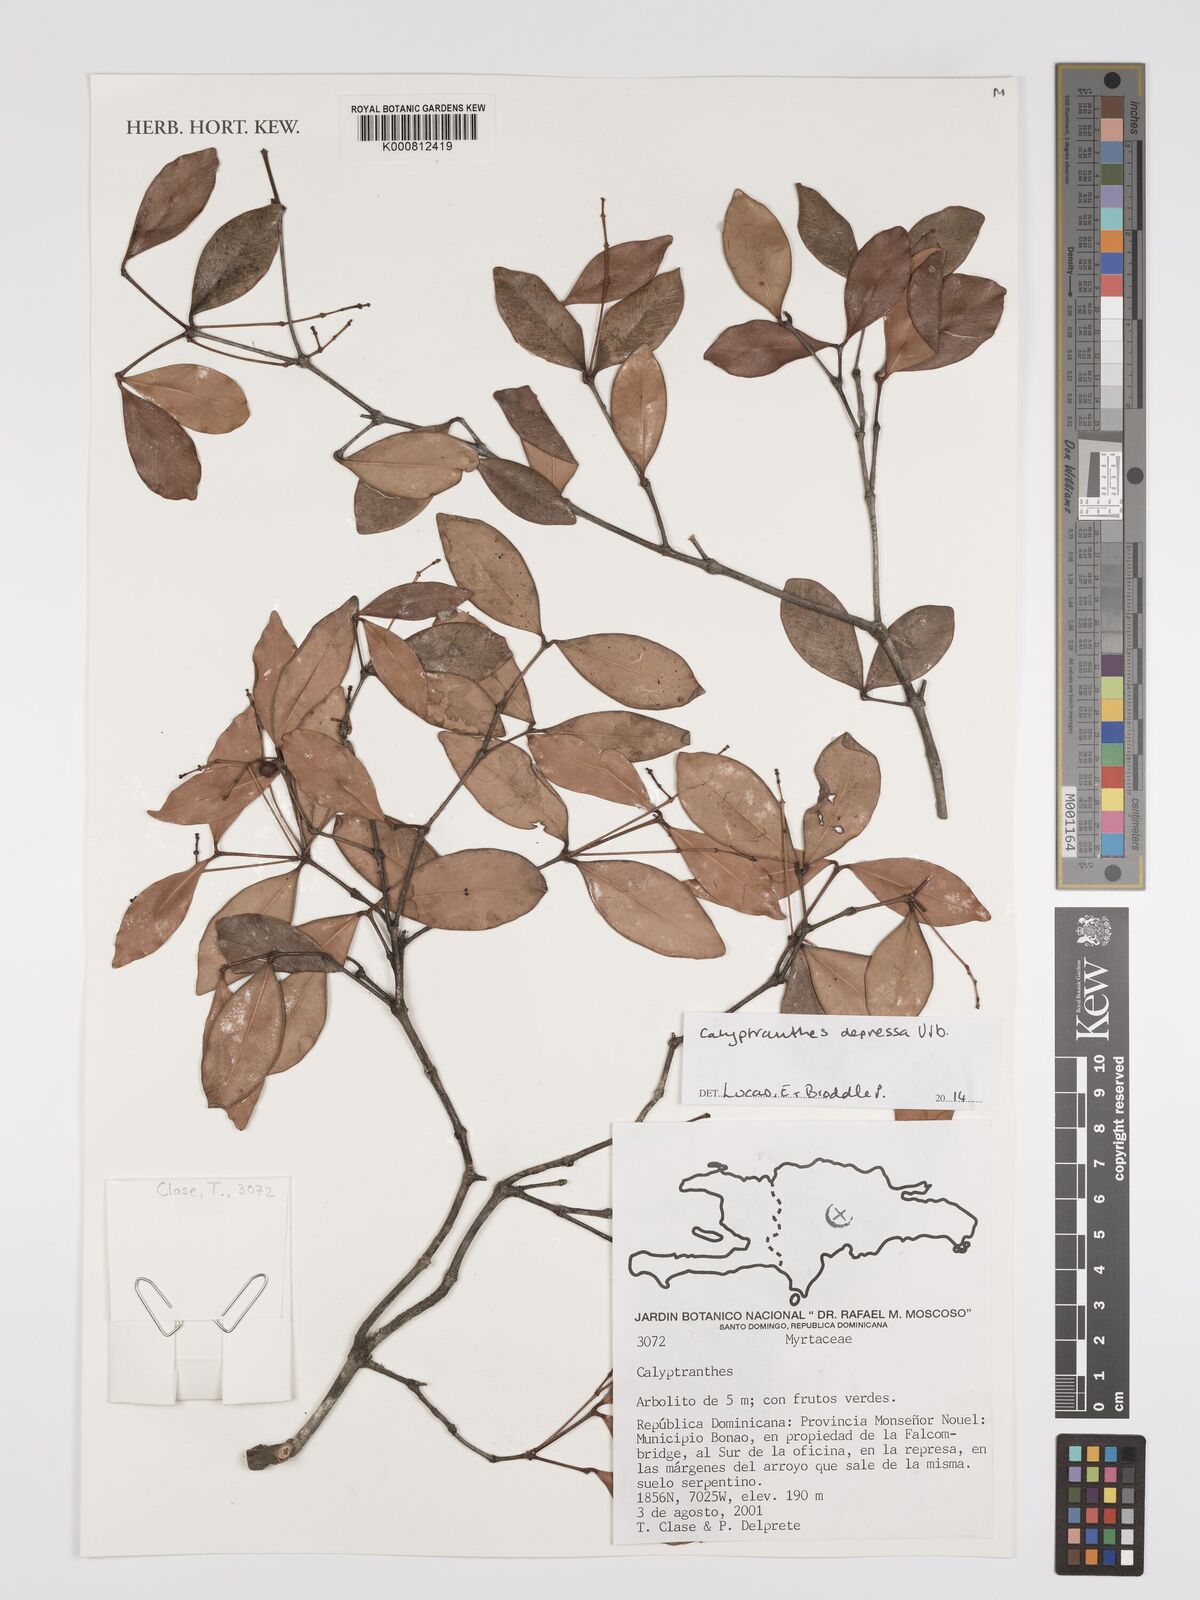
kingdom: Plantae
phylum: Tracheophyta
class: Magnoliopsida
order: Myrtales
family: Myrtaceae
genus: Myrcia
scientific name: Myrcia depressa
